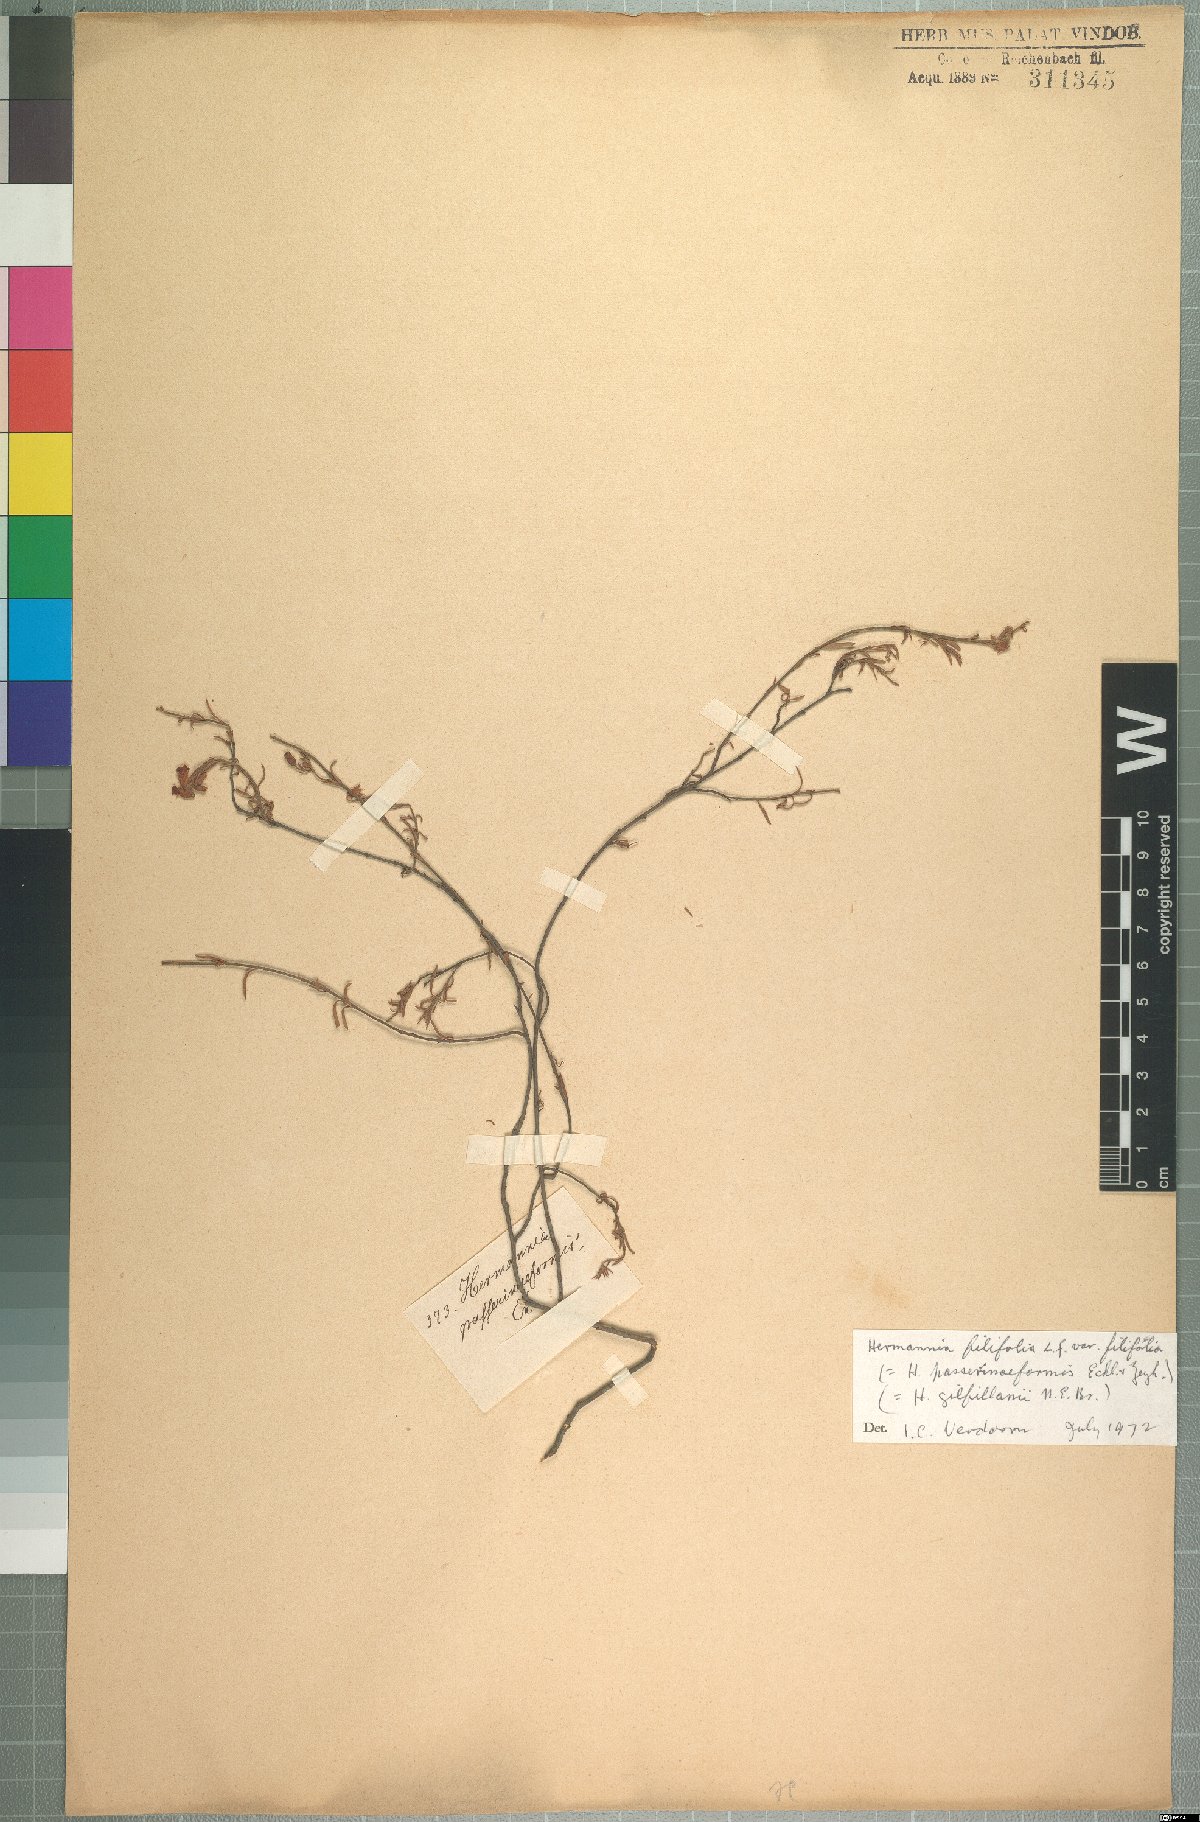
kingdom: Plantae
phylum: Tracheophyta
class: Magnoliopsida
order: Malvales
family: Malvaceae
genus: Hermannia
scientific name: Hermannia filifolia
